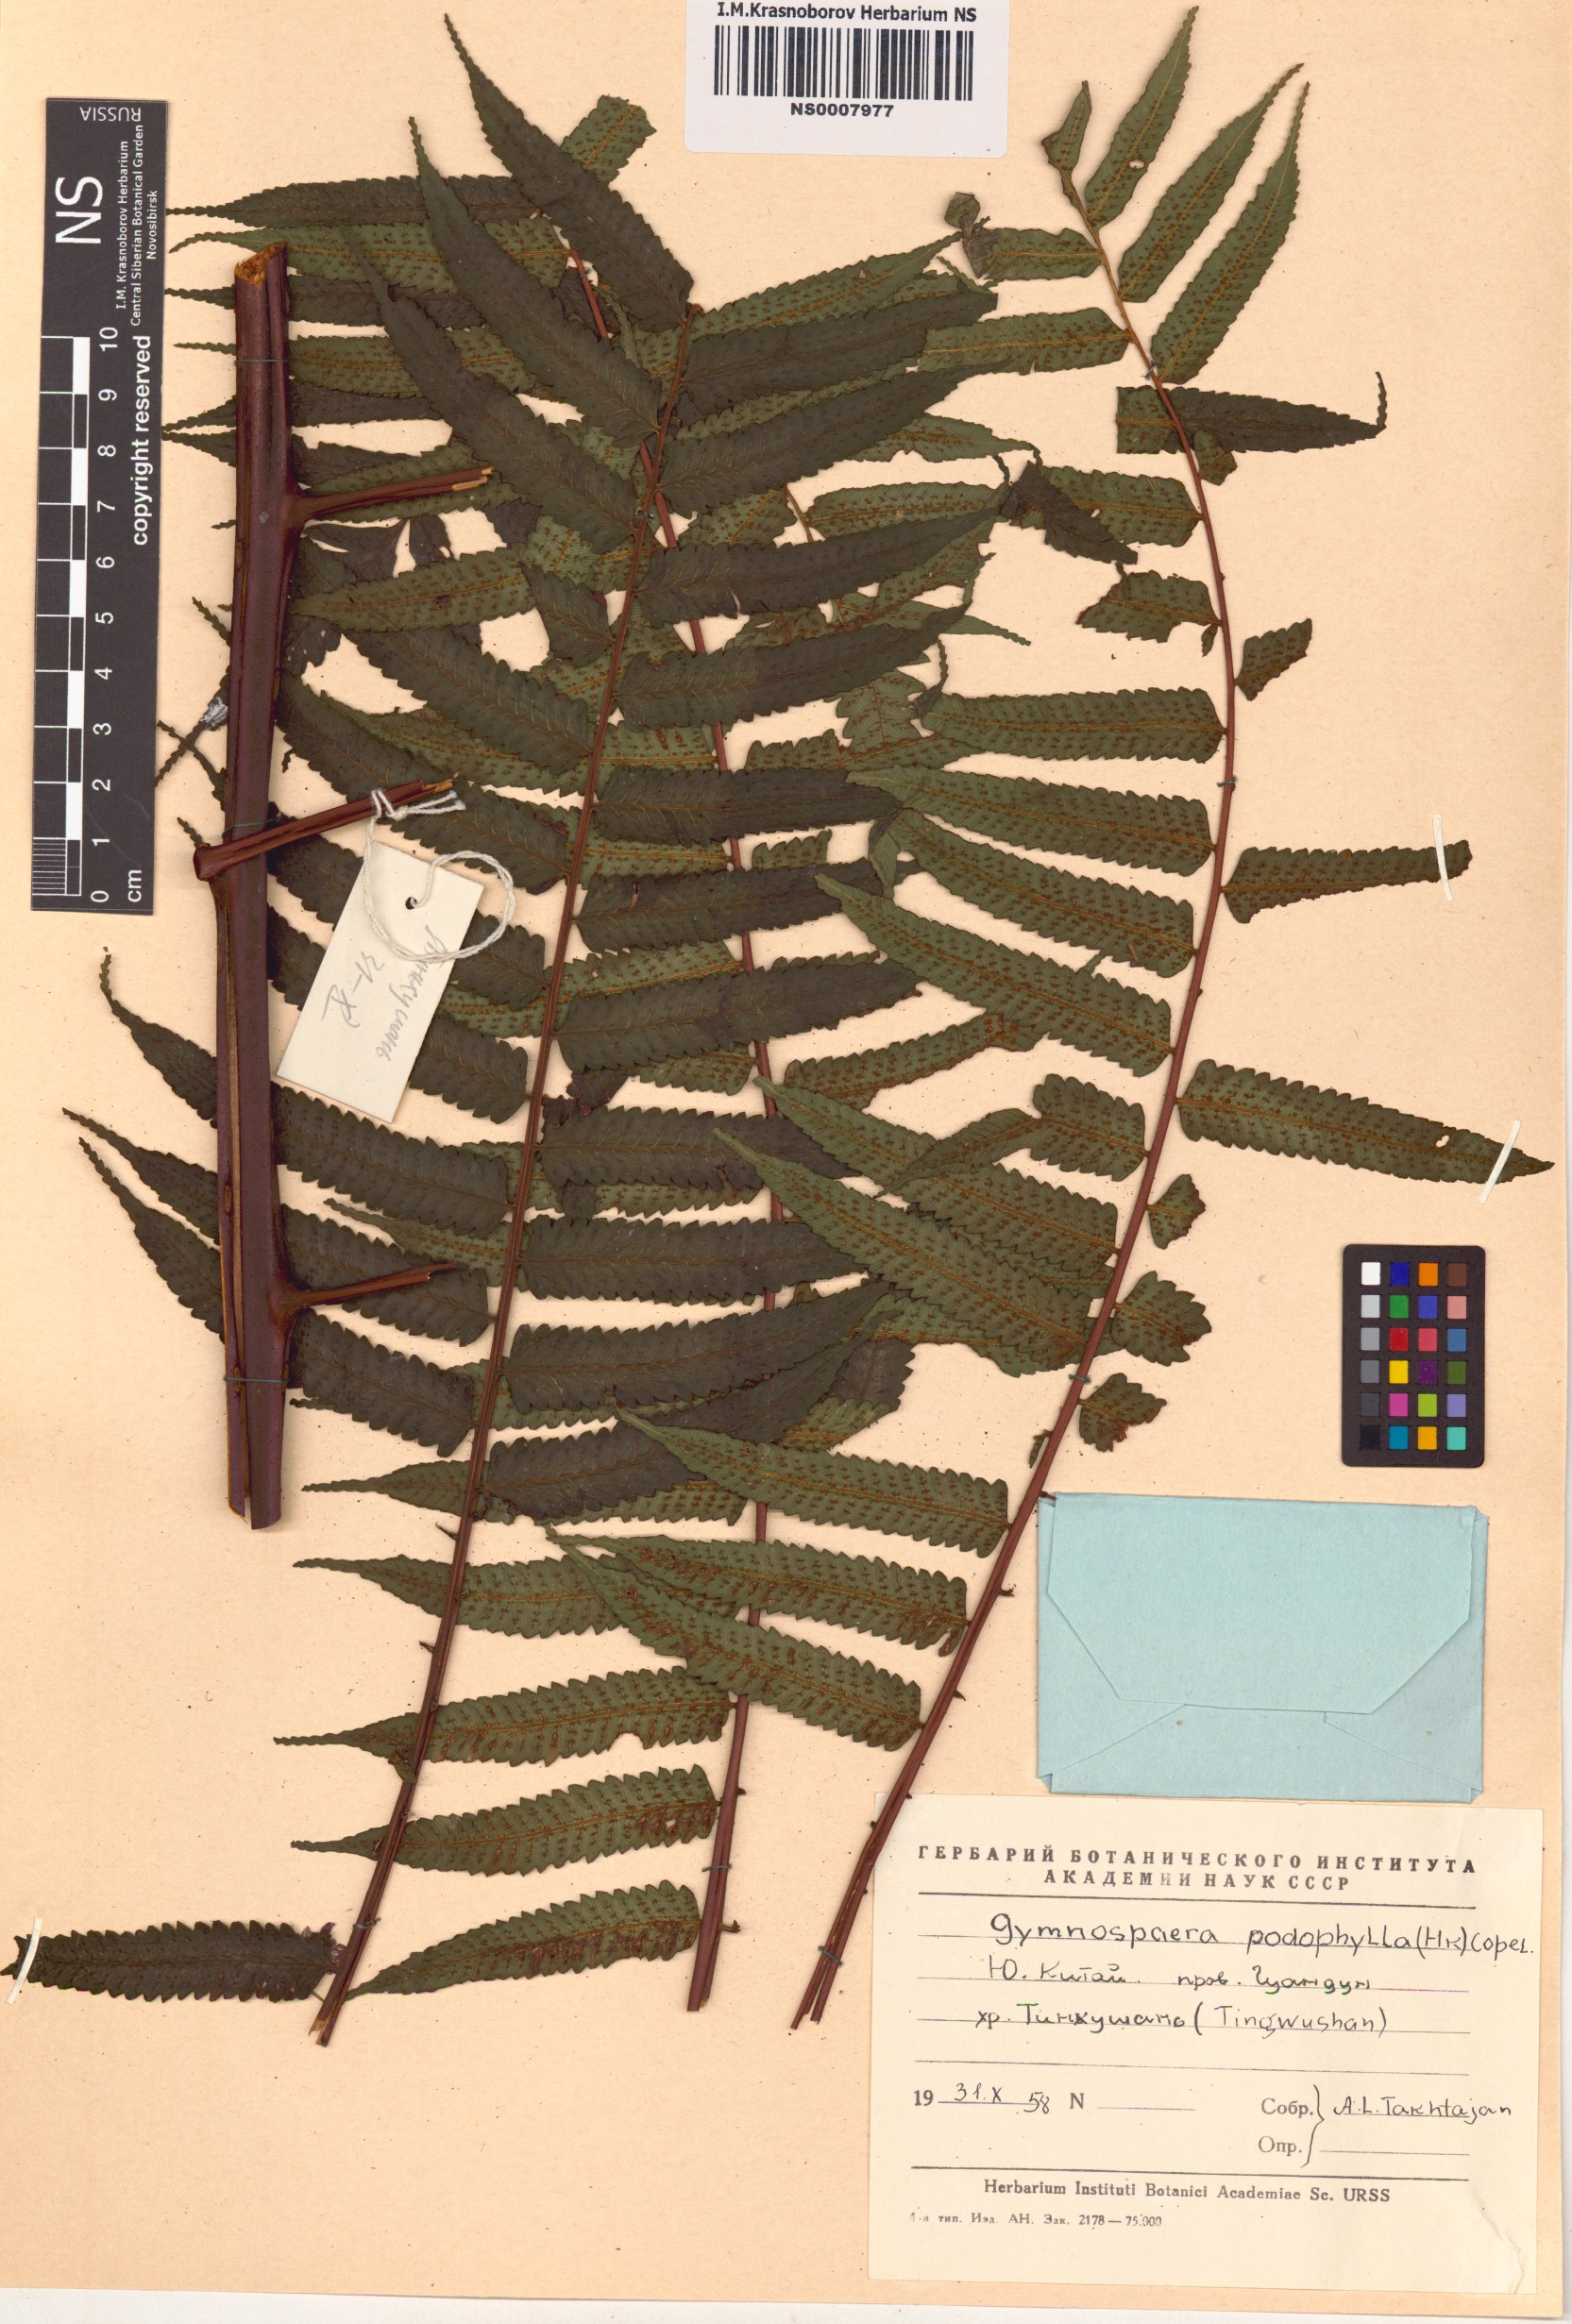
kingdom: Plantae
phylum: Tracheophyta
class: Polypodiopsida
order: Cyatheales
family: Cyatheaceae
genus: Gymnosphaera
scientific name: Gymnosphaera podophylla
